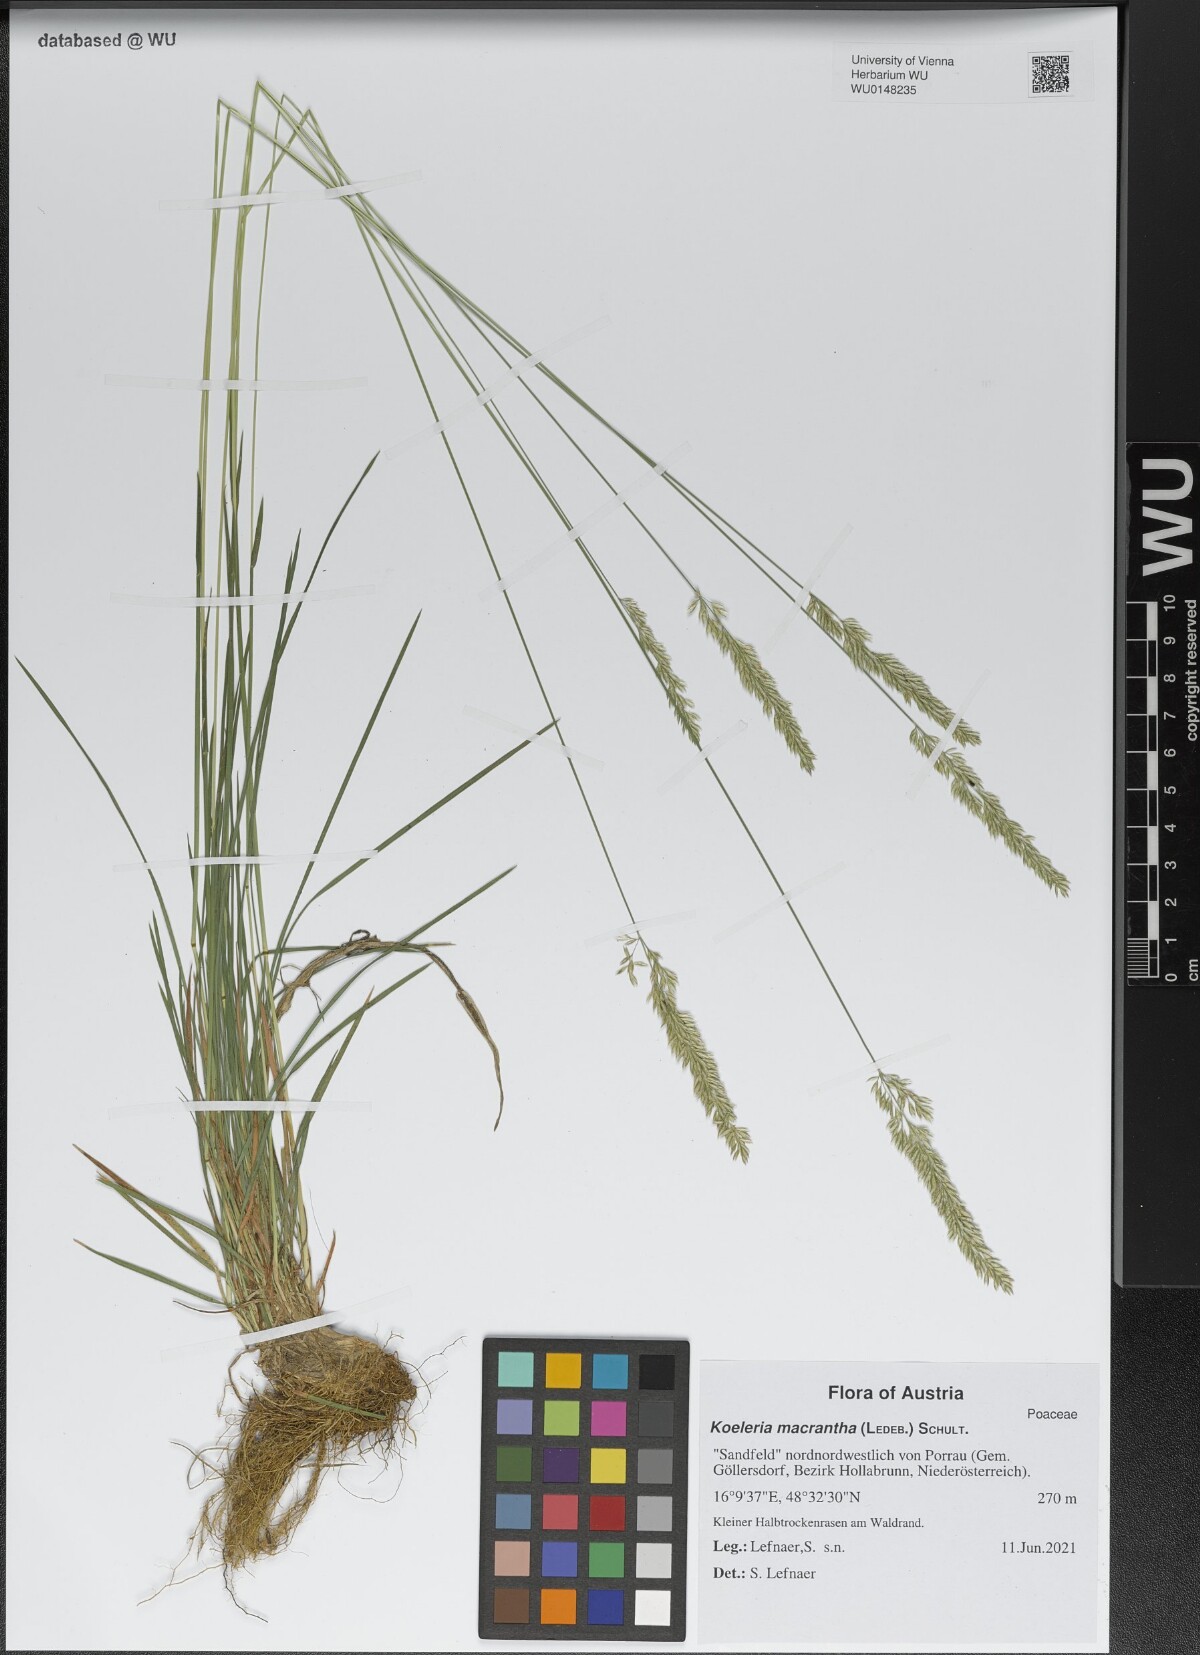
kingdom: Plantae
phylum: Tracheophyta
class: Liliopsida
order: Poales
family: Poaceae
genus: Koeleria
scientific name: Koeleria macrantha
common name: Crested hair-grass
